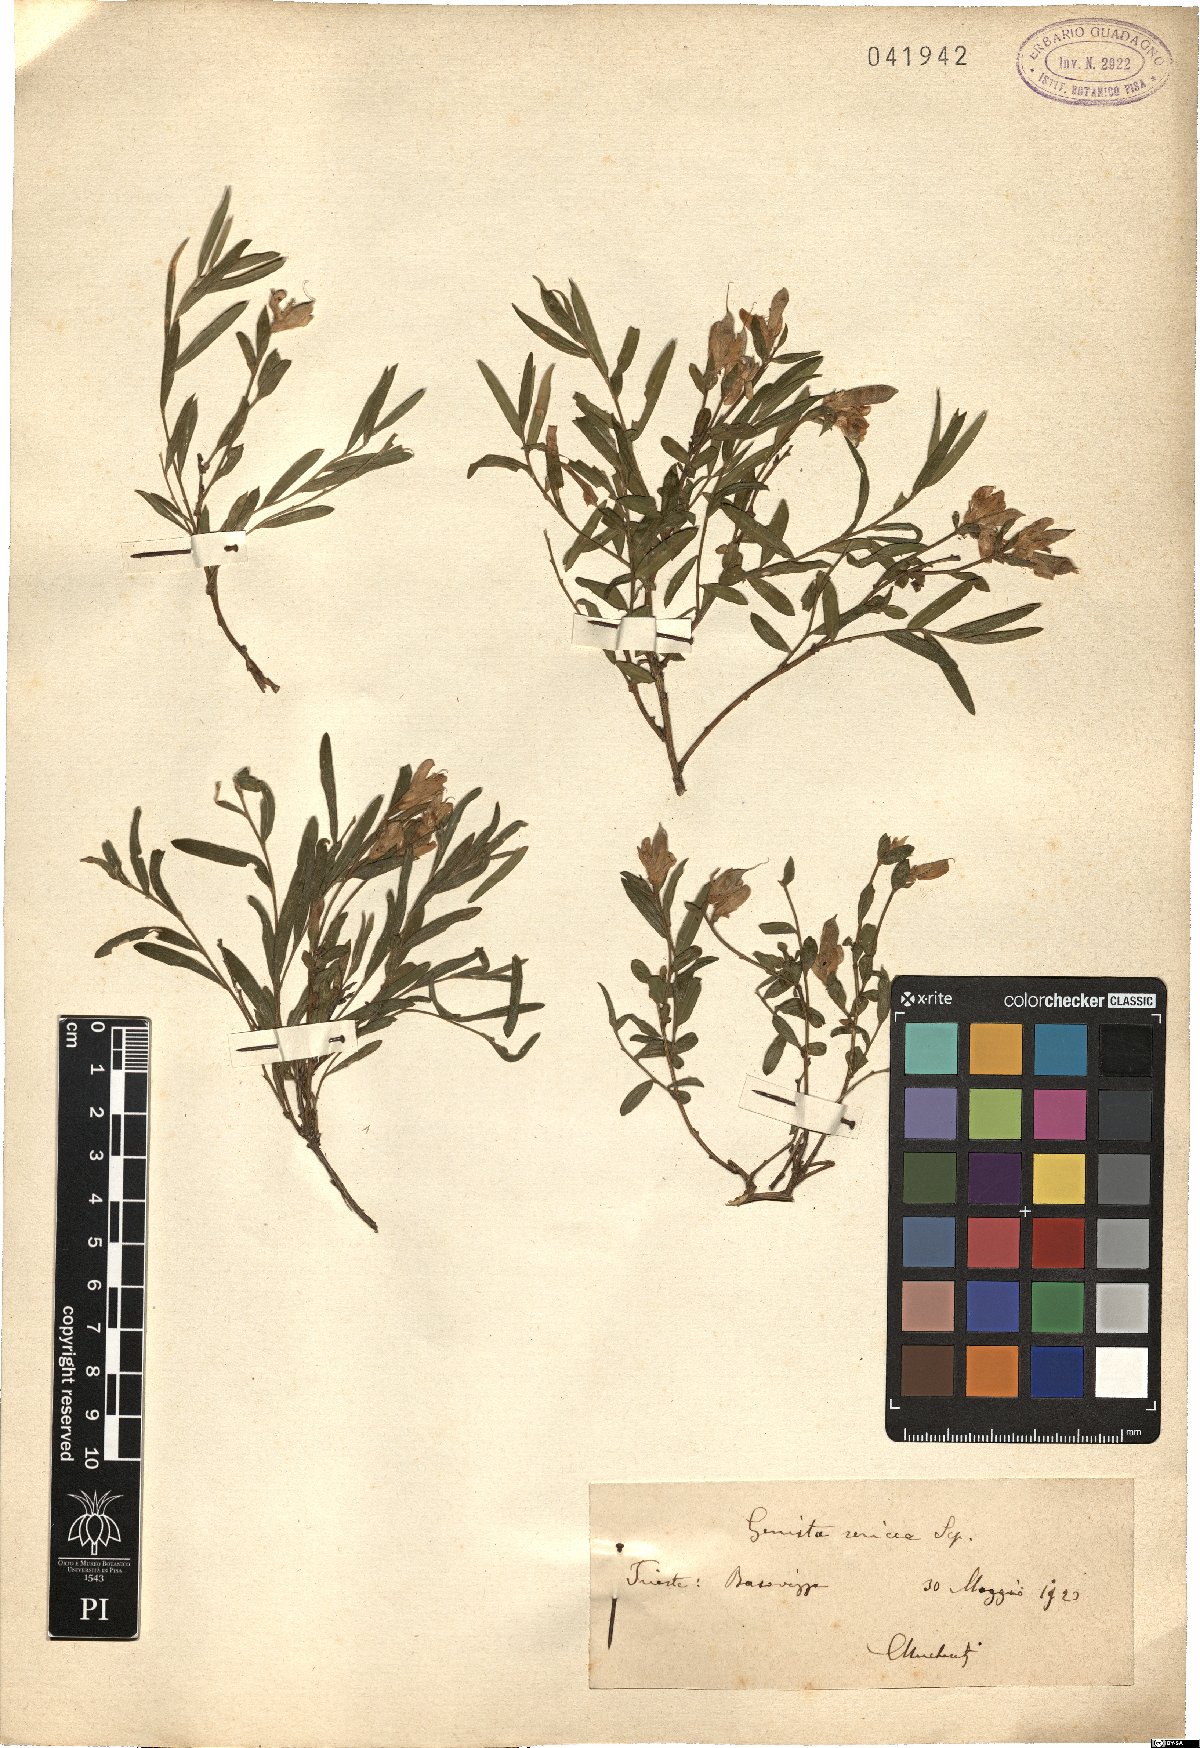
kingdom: Plantae
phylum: Tracheophyta
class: Magnoliopsida
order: Fabales
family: Fabaceae
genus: Genista
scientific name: Genista sericea
